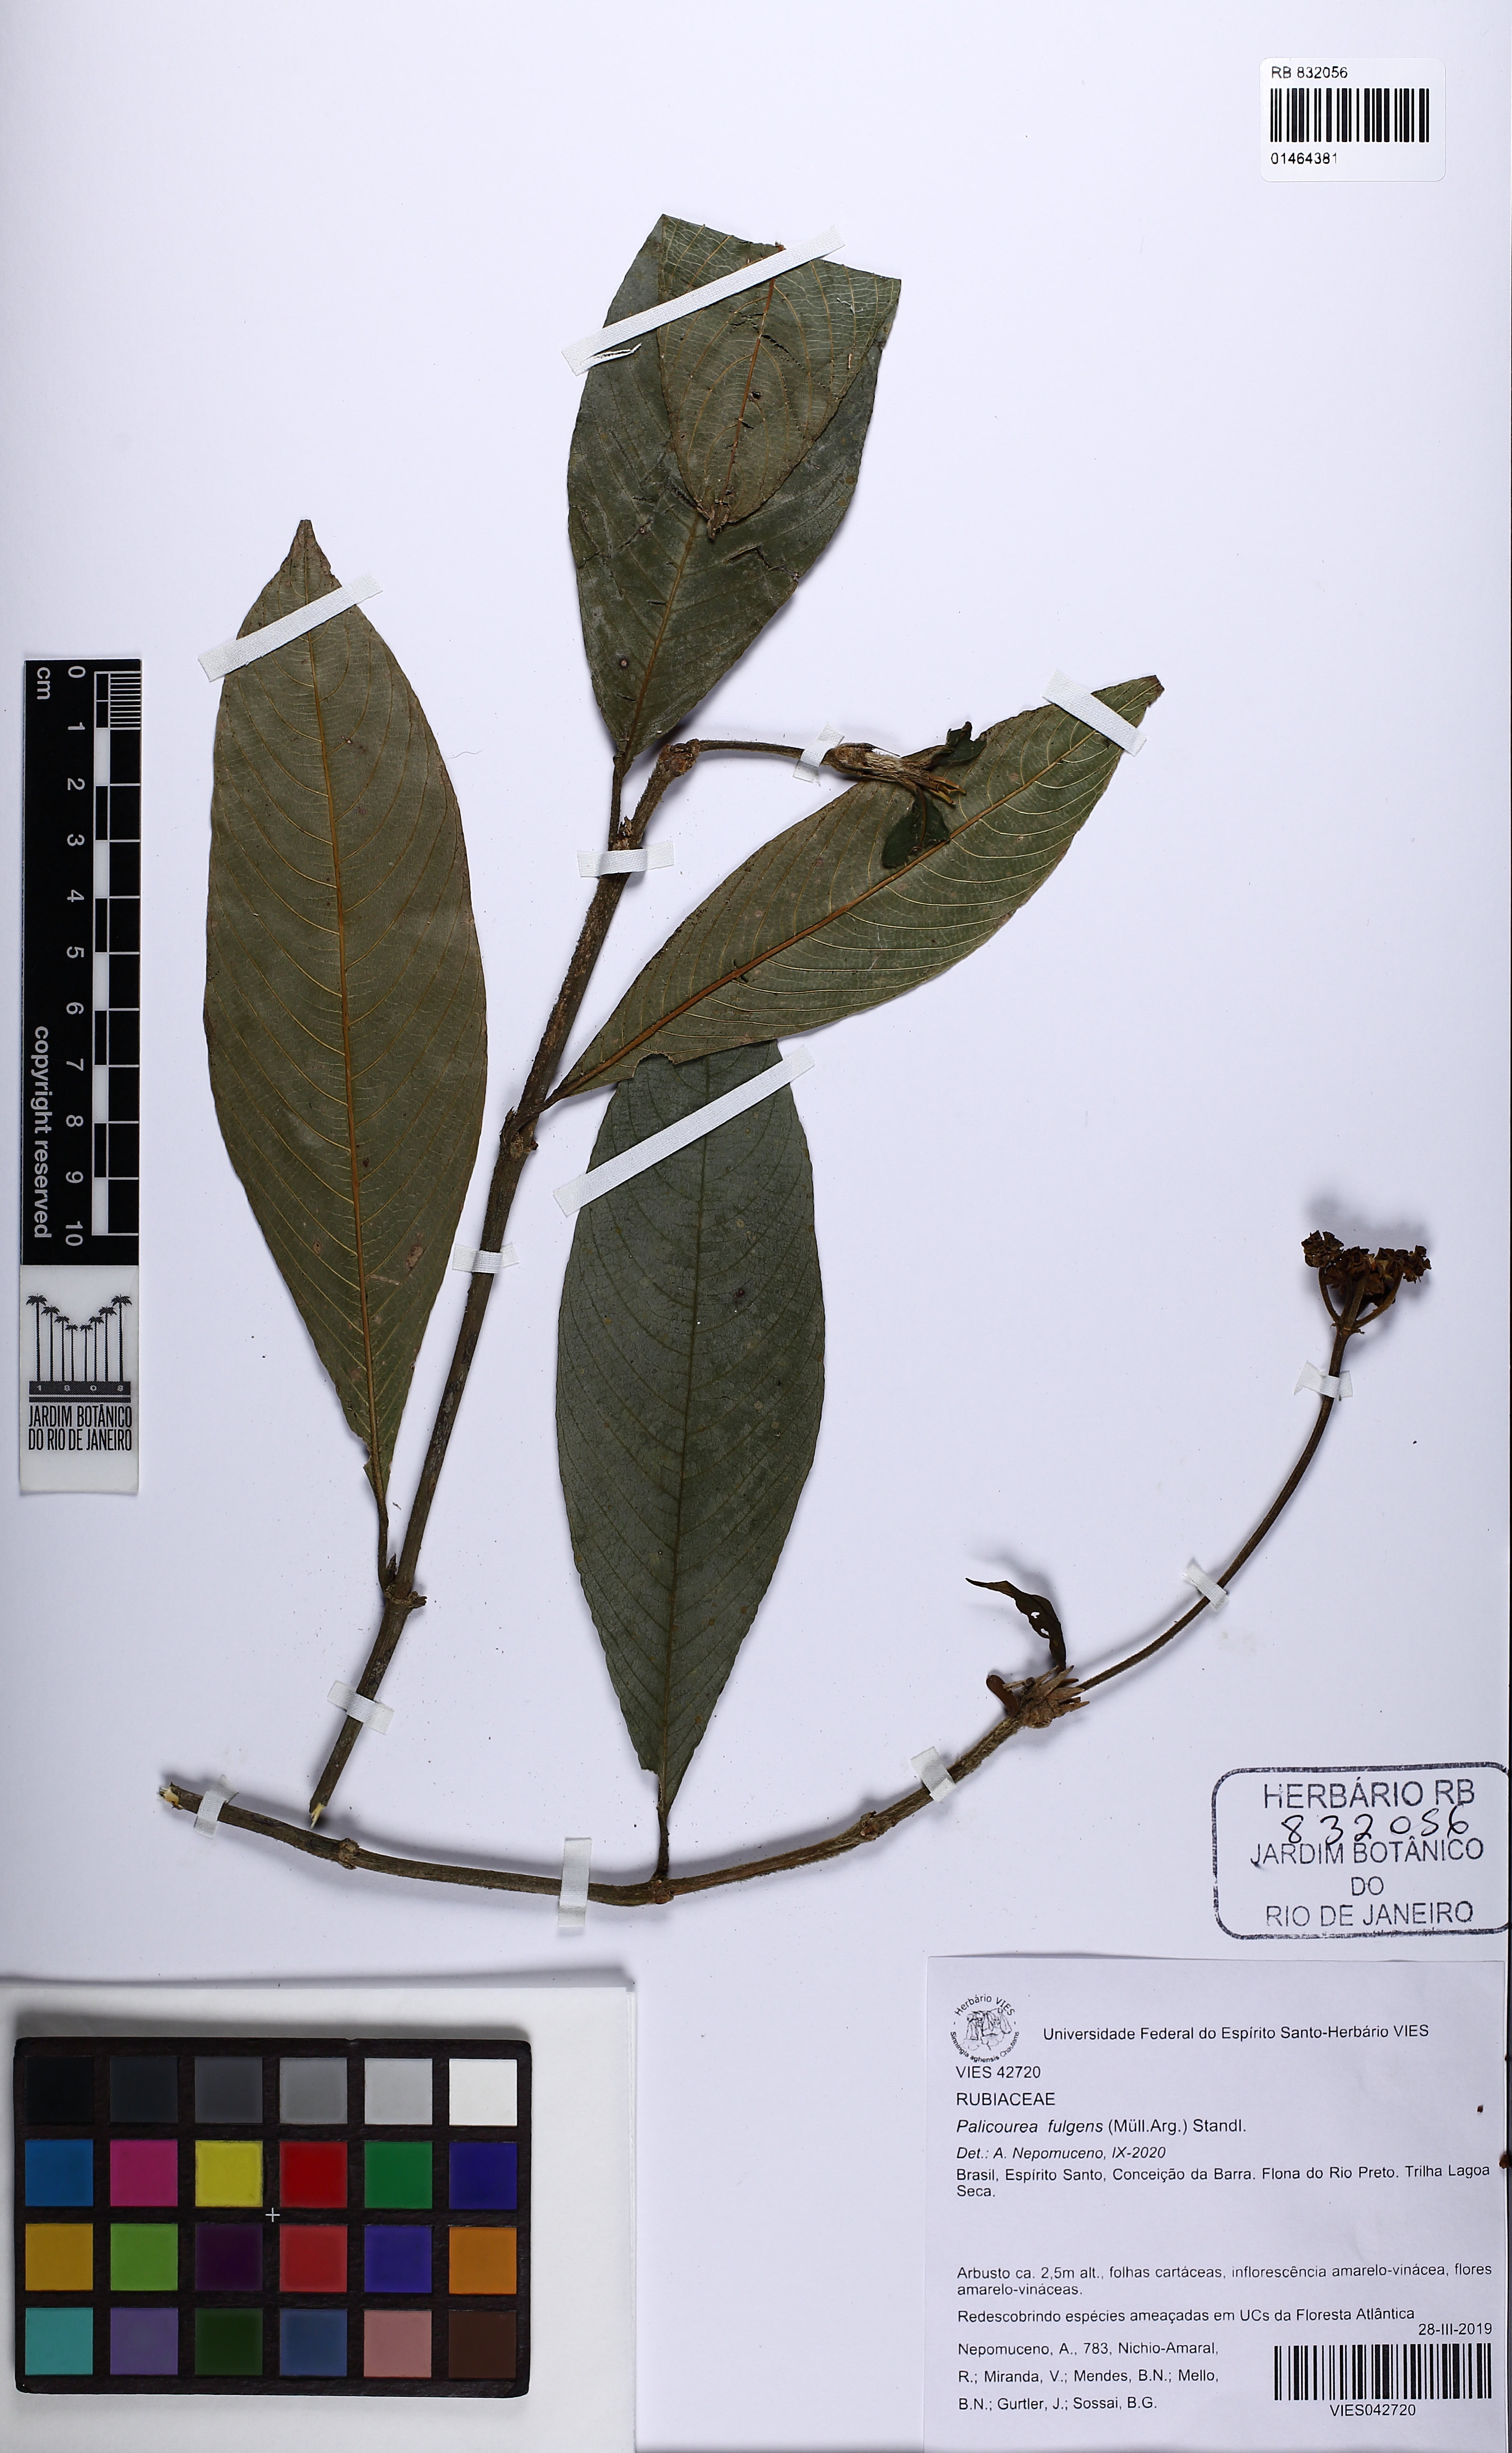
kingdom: Plantae
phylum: Tracheophyta
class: Magnoliopsida
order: Gentianales
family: Rubiaceae
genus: Palicourea
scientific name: Palicourea fulgens
